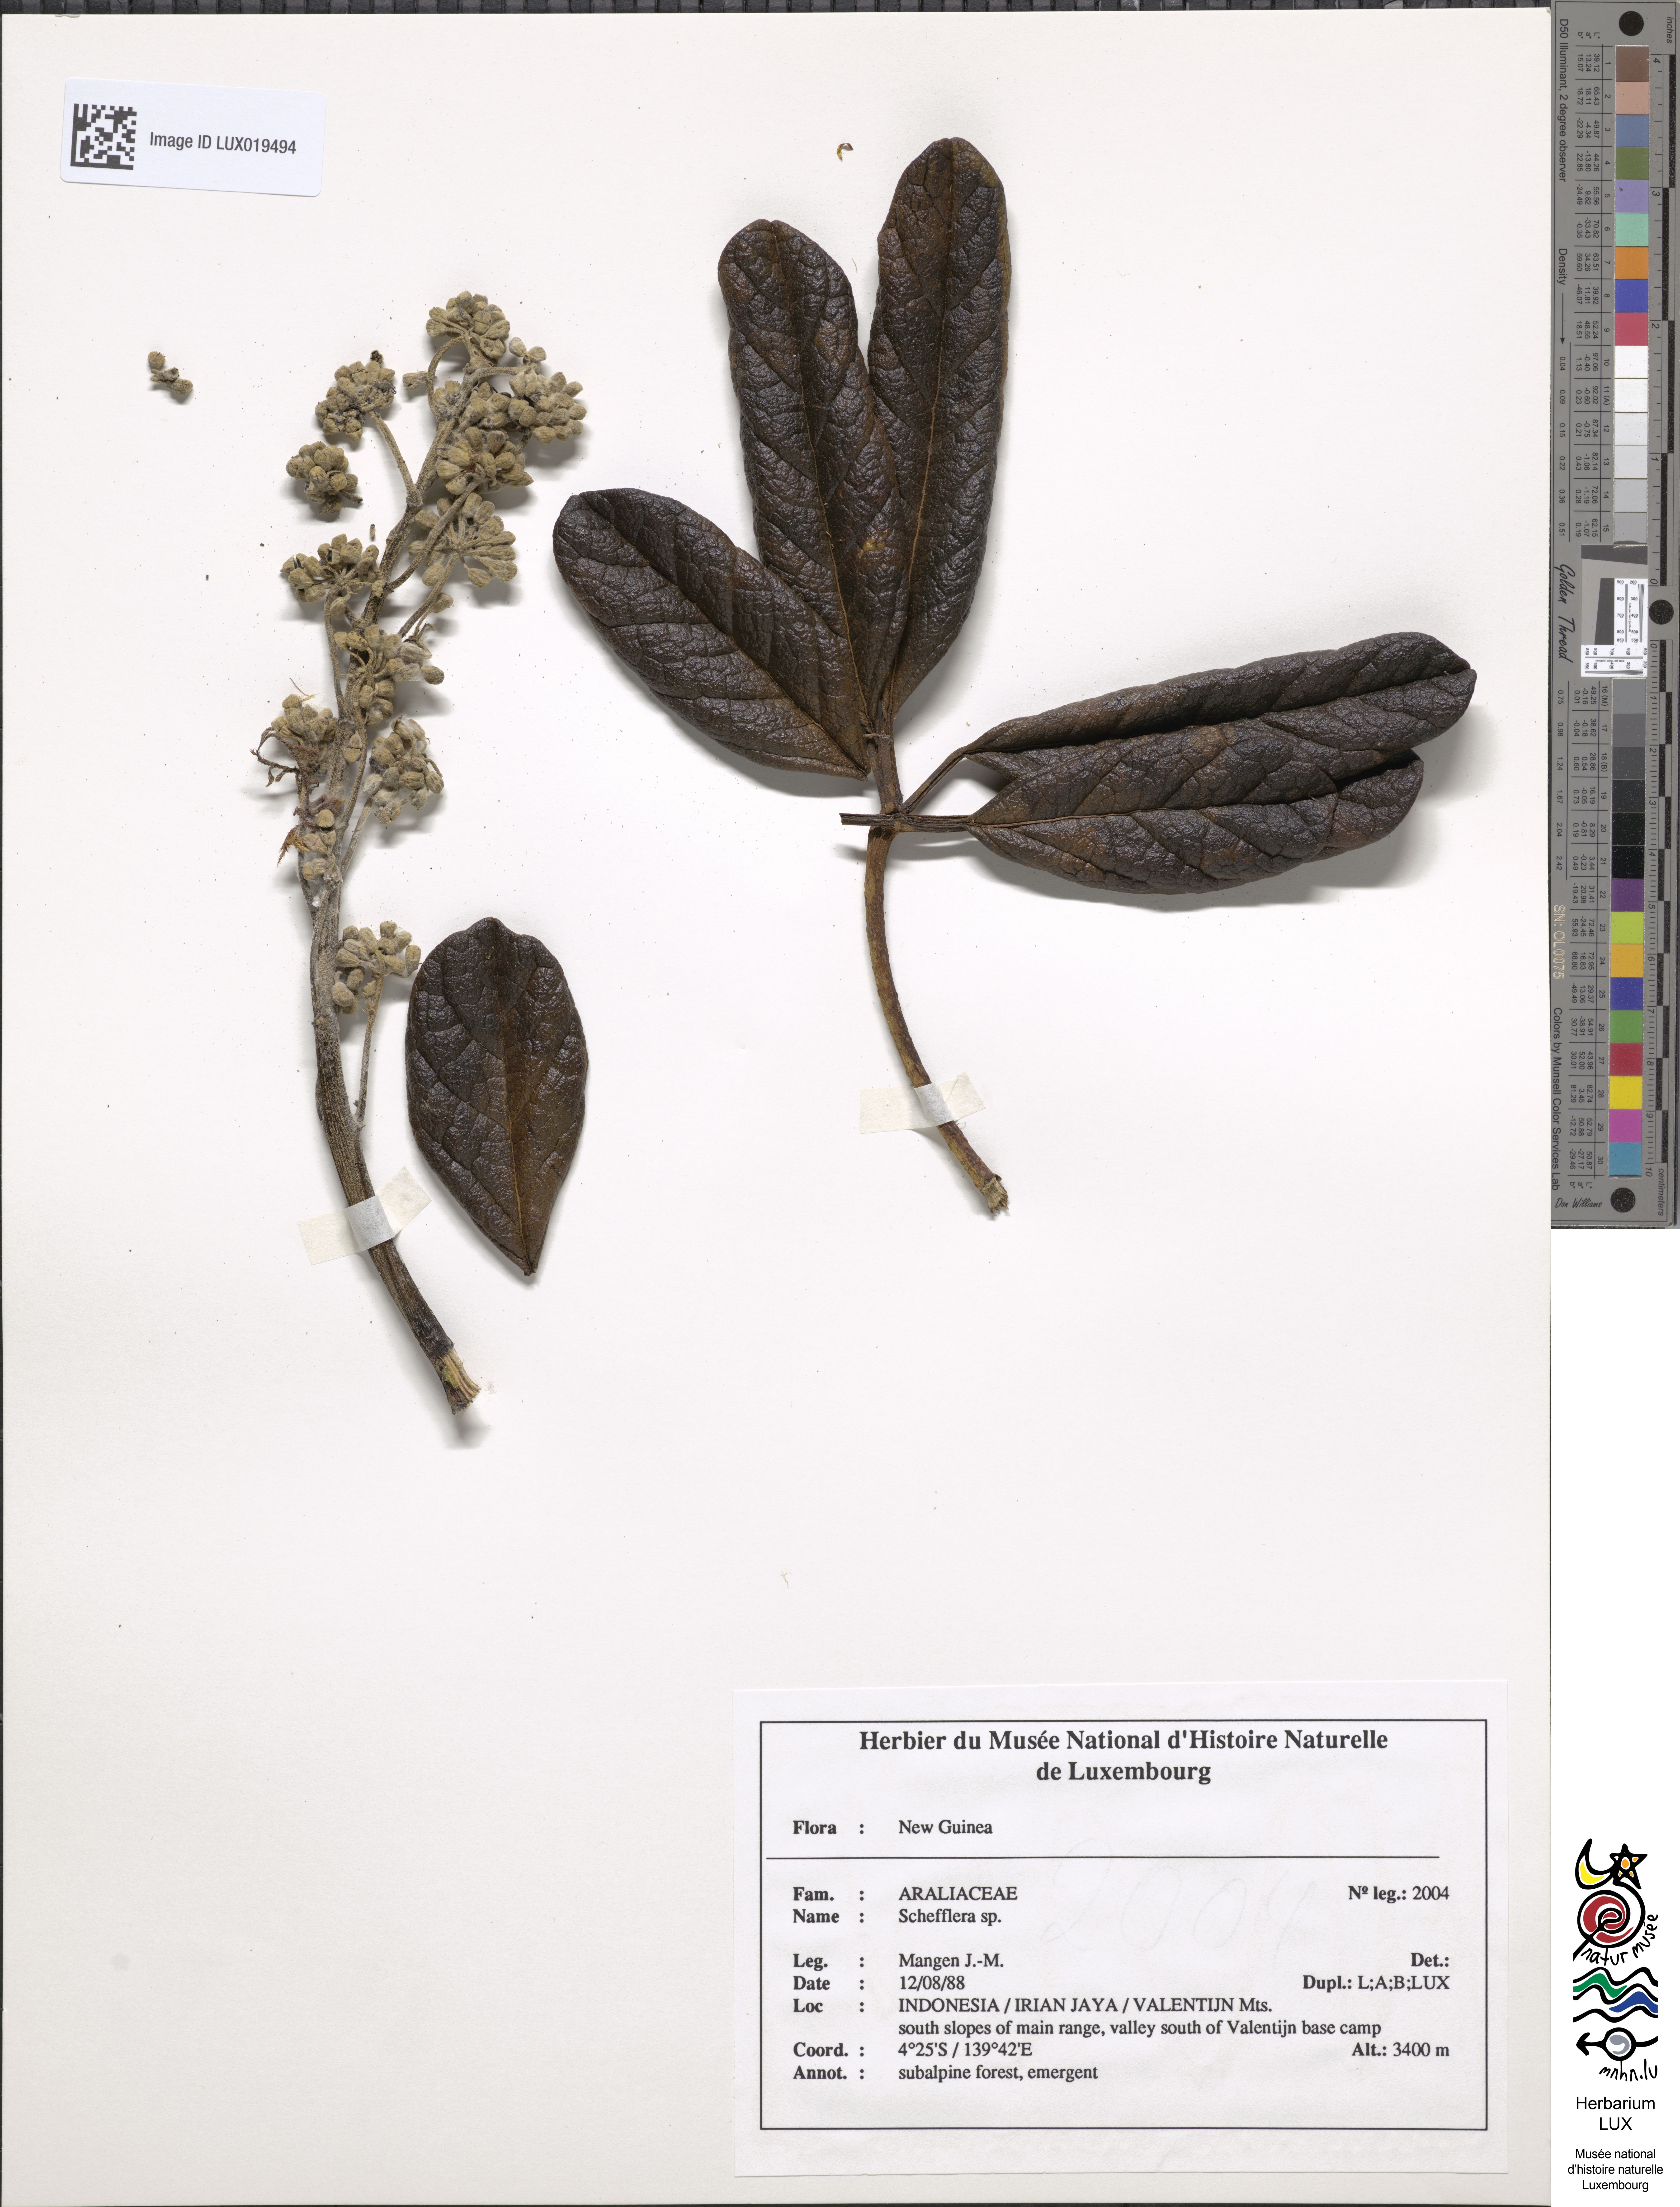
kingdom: Plantae
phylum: Tracheophyta
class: Magnoliopsida
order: Apiales
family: Araliaceae
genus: Schefflera
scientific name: Schefflera
